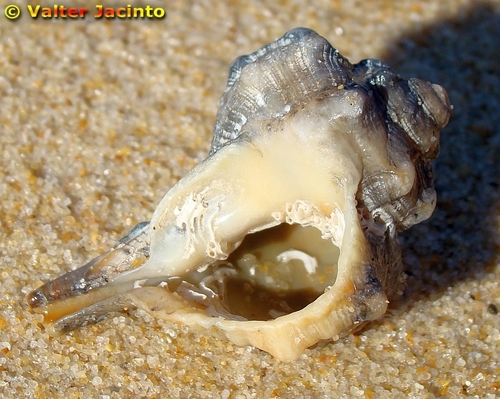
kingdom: Animalia
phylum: Mollusca
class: Gastropoda
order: Neogastropoda
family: Muricidae
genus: Bolinus
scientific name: Bolinus brandaris
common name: Dye murex
